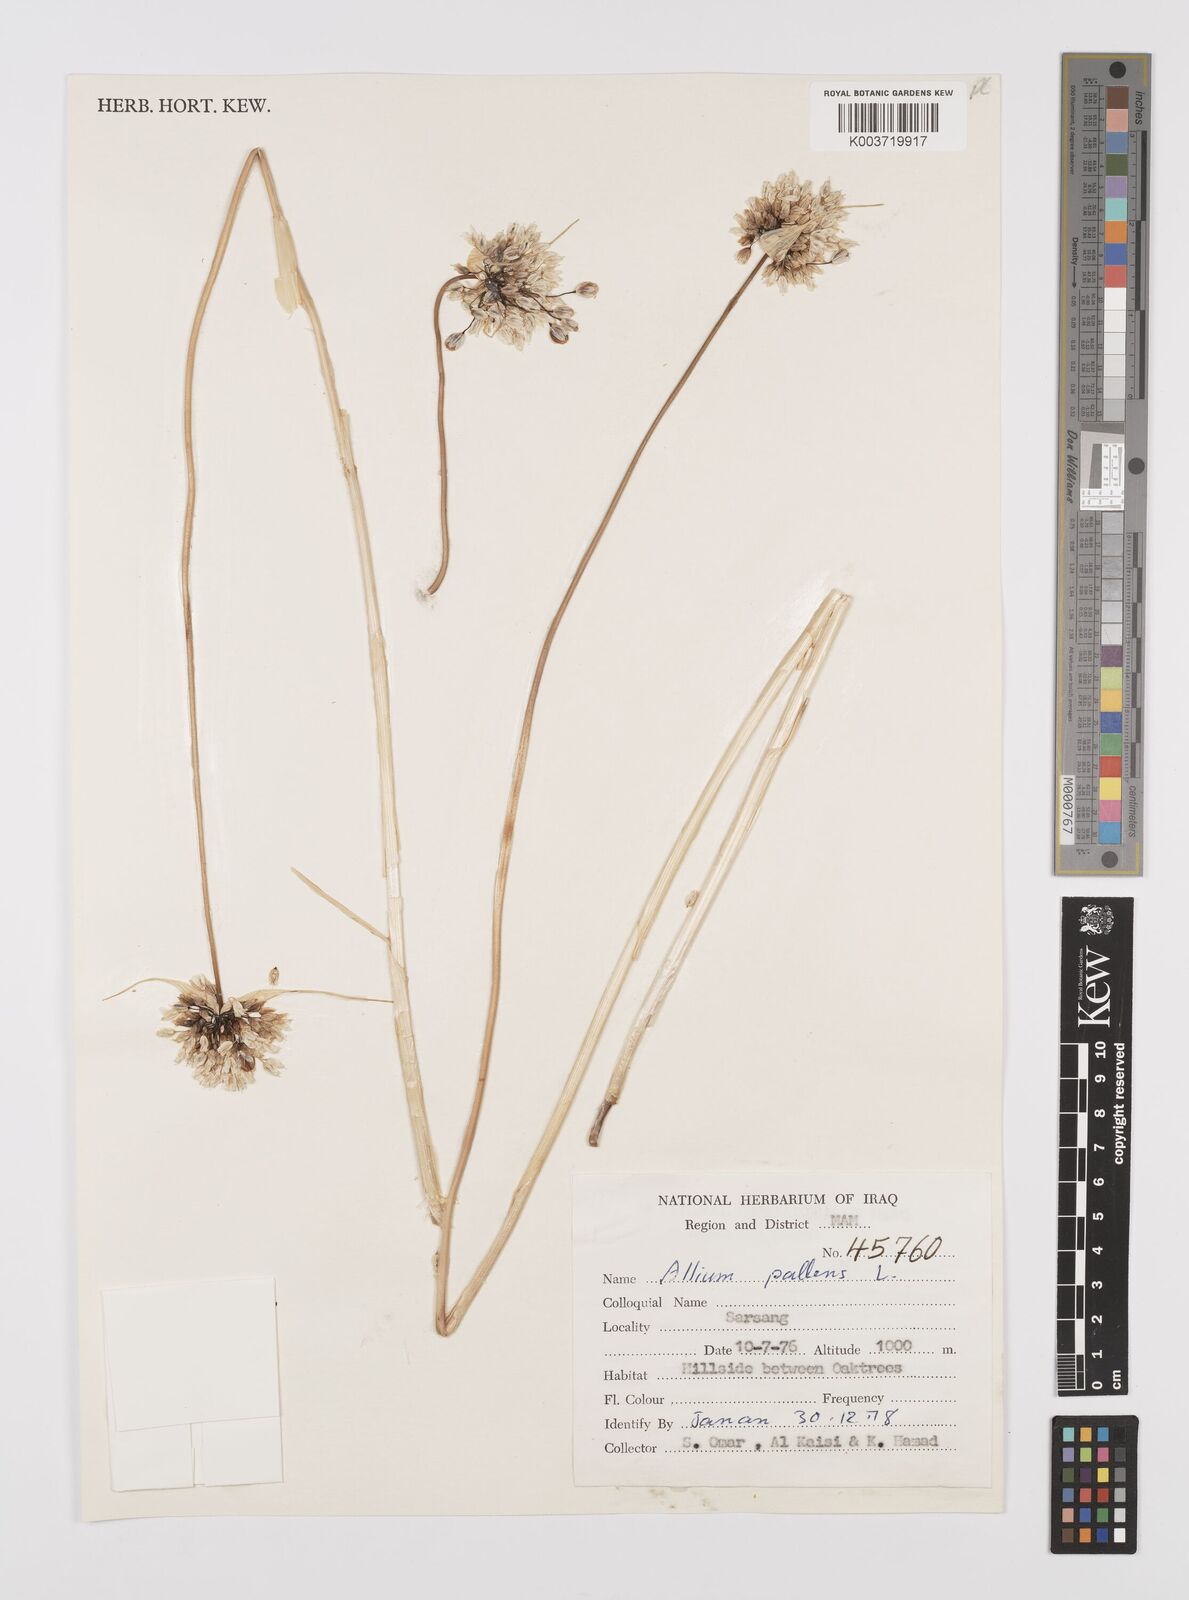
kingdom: Plantae
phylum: Tracheophyta
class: Liliopsida
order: Asparagales
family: Amaryllidaceae
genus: Allium
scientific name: Allium pallens
